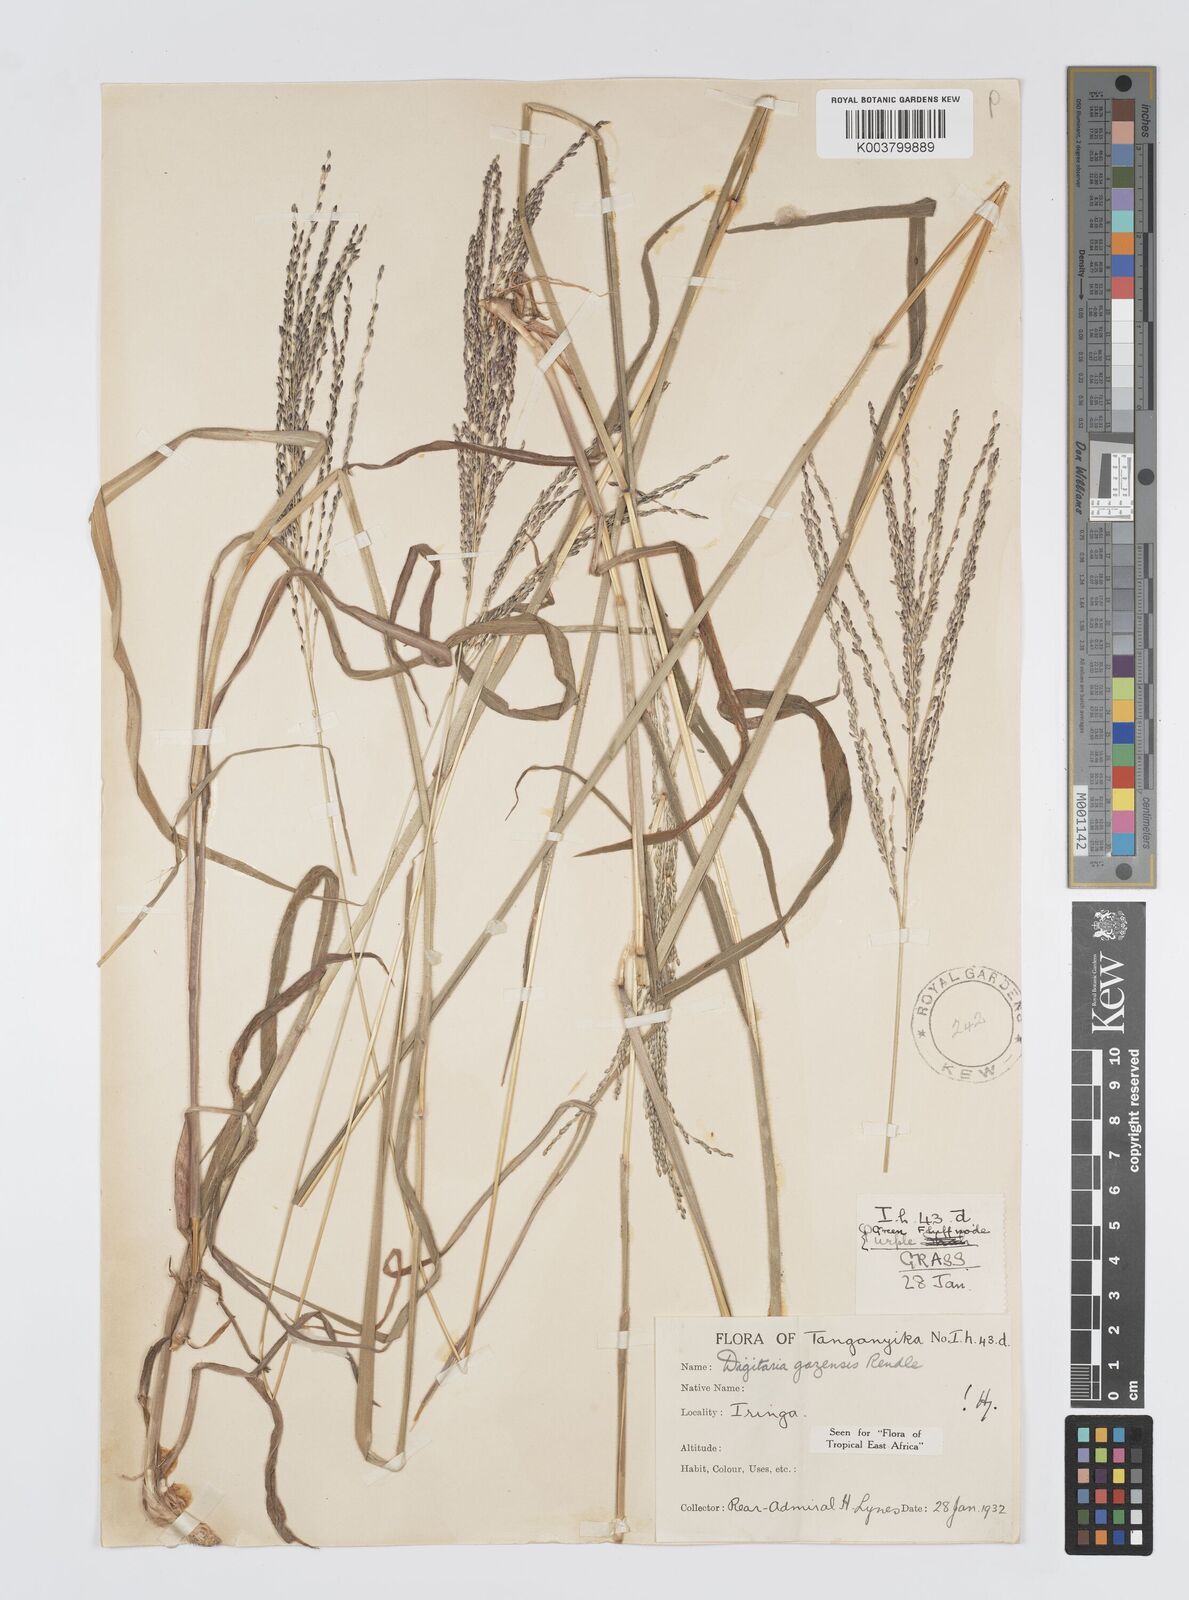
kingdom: Plantae
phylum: Tracheophyta
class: Liliopsida
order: Poales
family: Poaceae
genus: Digitaria
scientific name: Digitaria gazensis
